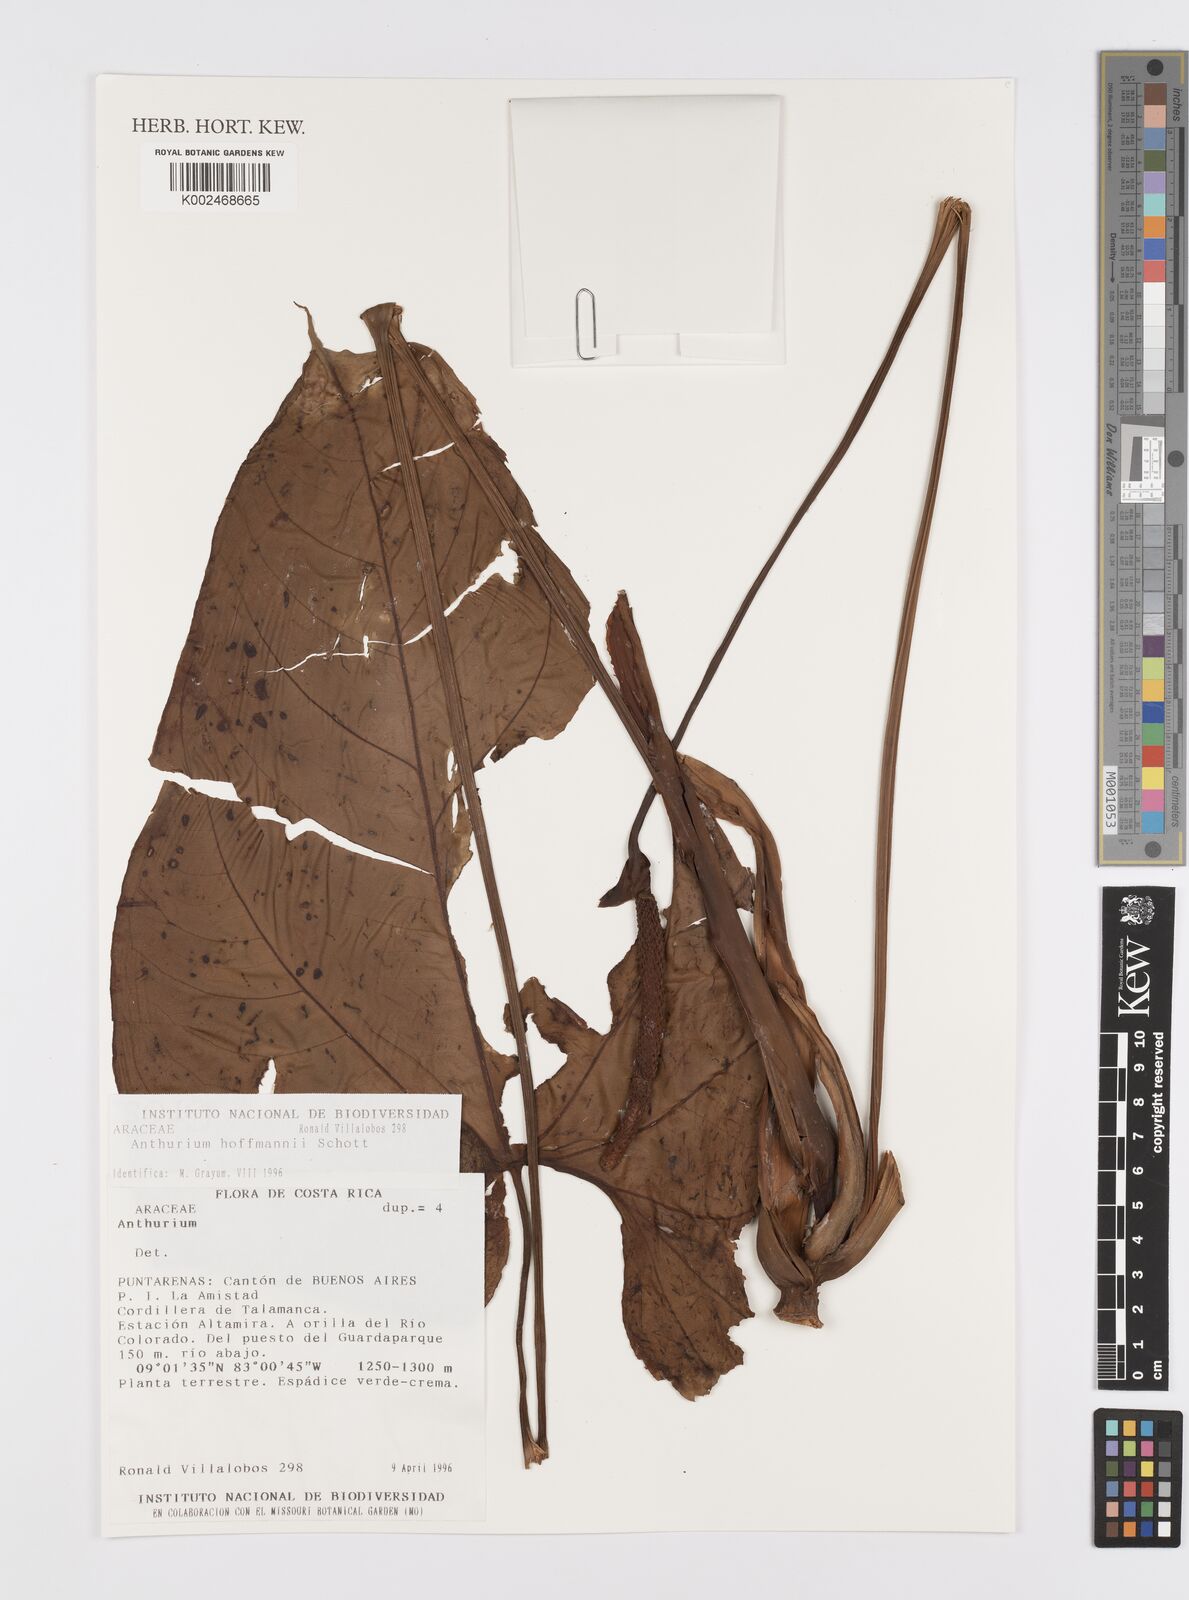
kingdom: Plantae
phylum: Tracheophyta
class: Liliopsida
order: Alismatales
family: Araceae
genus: Anthurium
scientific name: Anthurium hoffmannii
